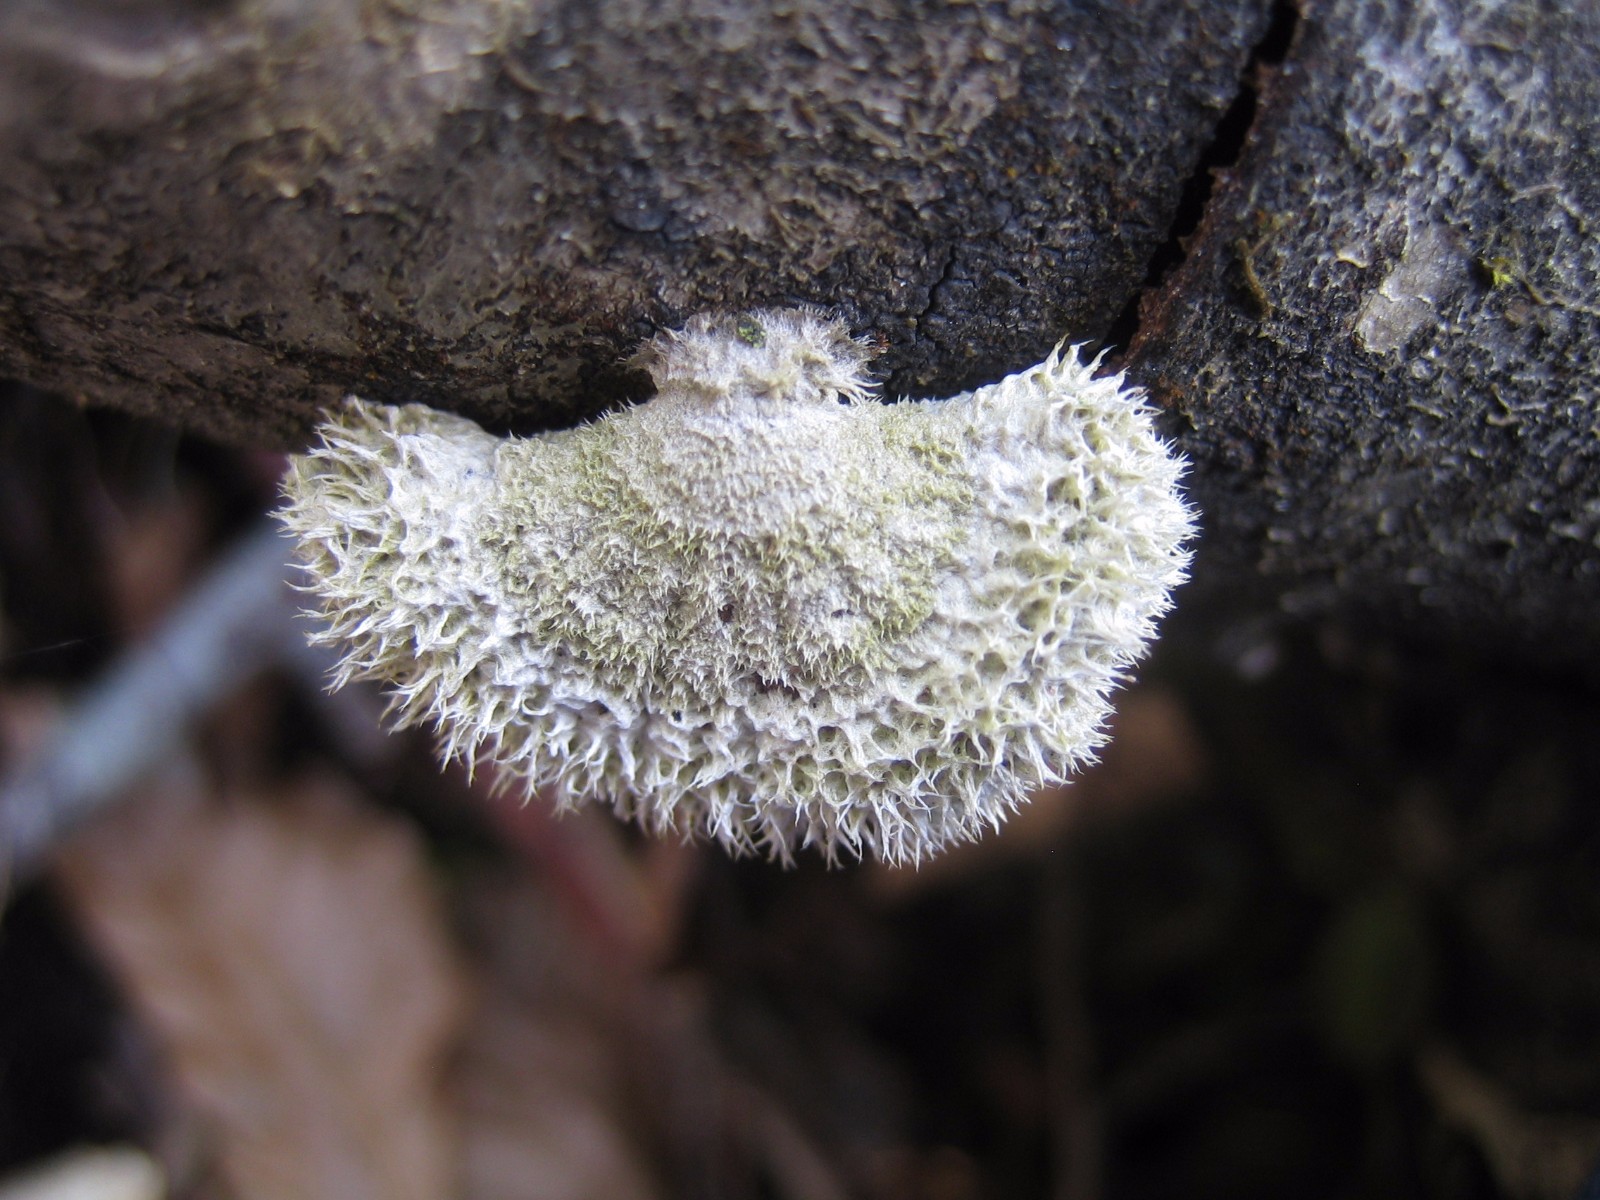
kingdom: Fungi
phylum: Basidiomycota
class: Agaricomycetes
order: Agaricales
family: Schizophyllaceae
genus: Schizophyllum
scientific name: Schizophyllum commune
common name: kløvblad
